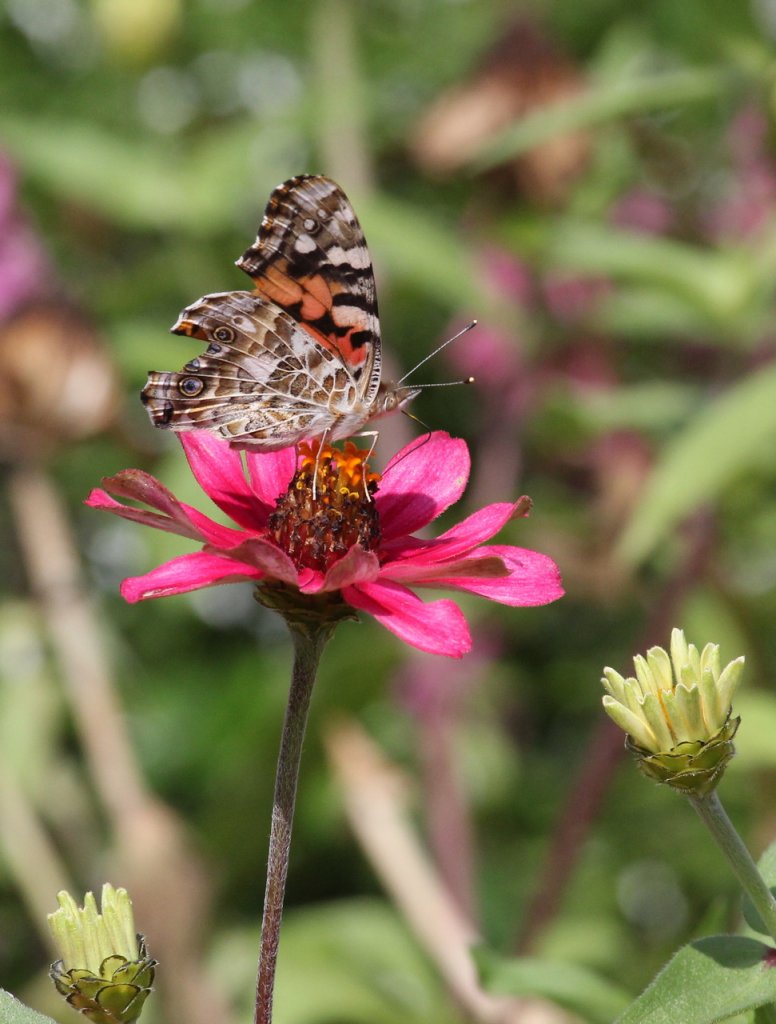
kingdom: Animalia
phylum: Arthropoda
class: Insecta
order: Lepidoptera
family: Nymphalidae
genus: Vanessa
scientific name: Vanessa cardui
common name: Painted Lady
